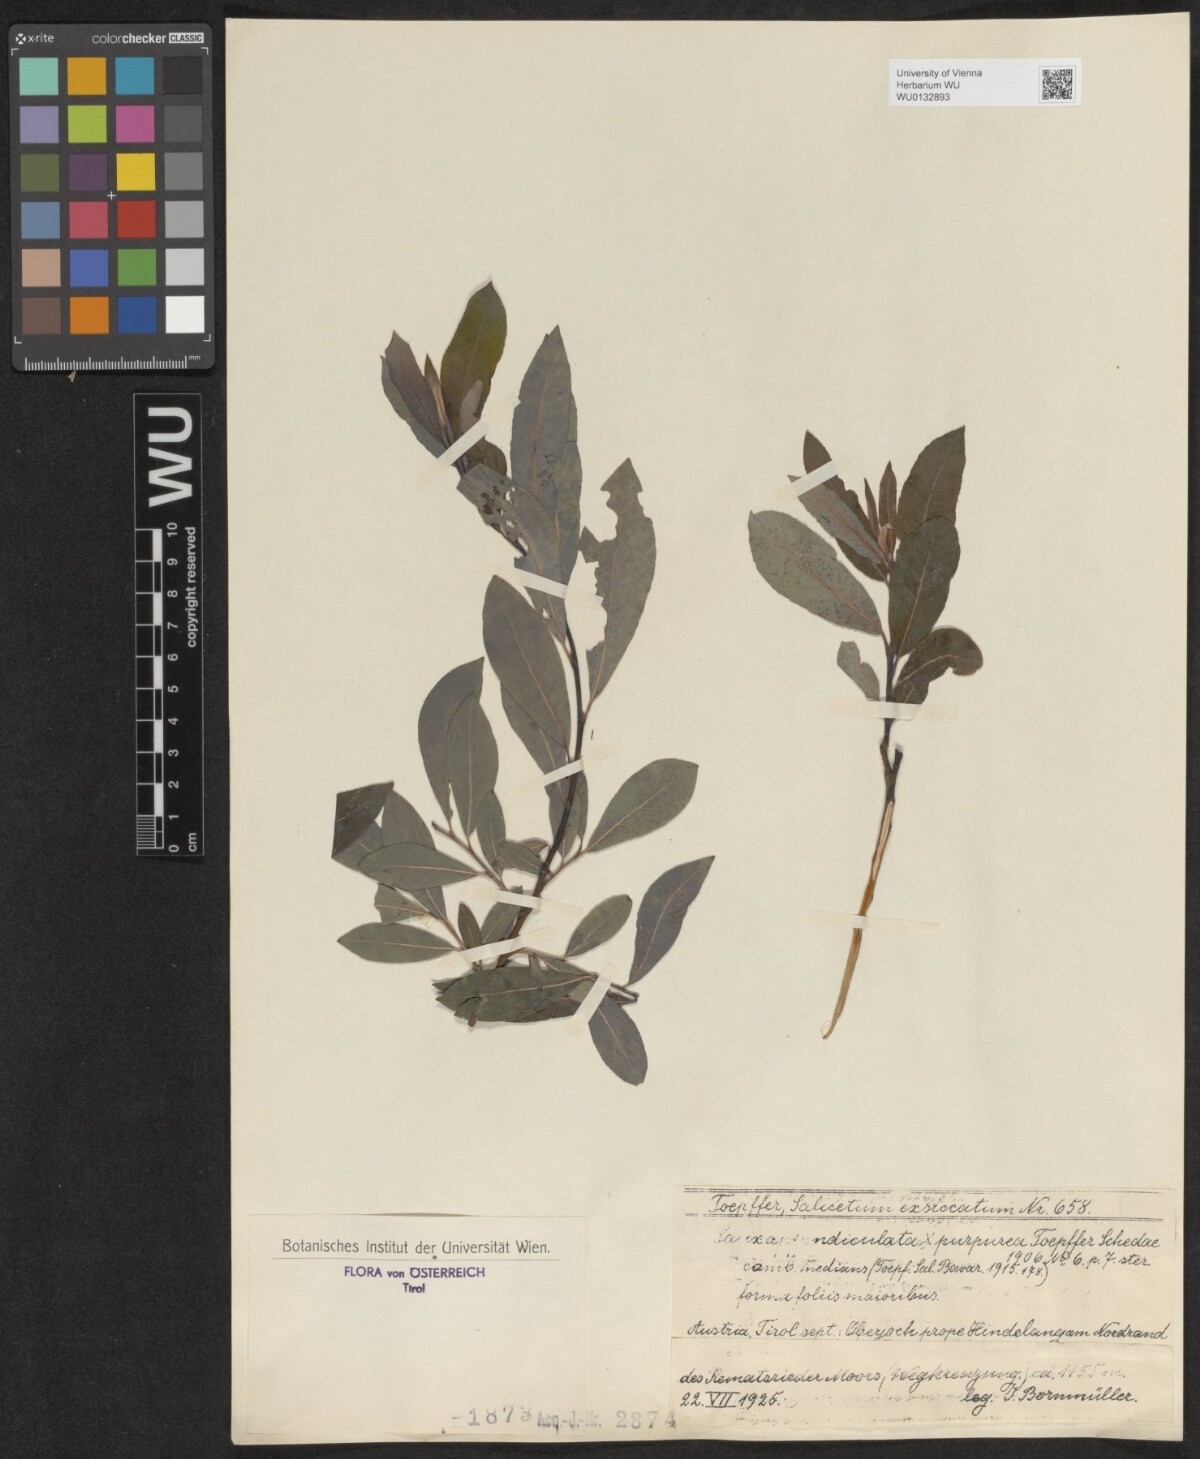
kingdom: Plantae
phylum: Tracheophyta
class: Magnoliopsida
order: Malpighiales
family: Salicaceae
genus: Salix
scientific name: Salix austriaca
